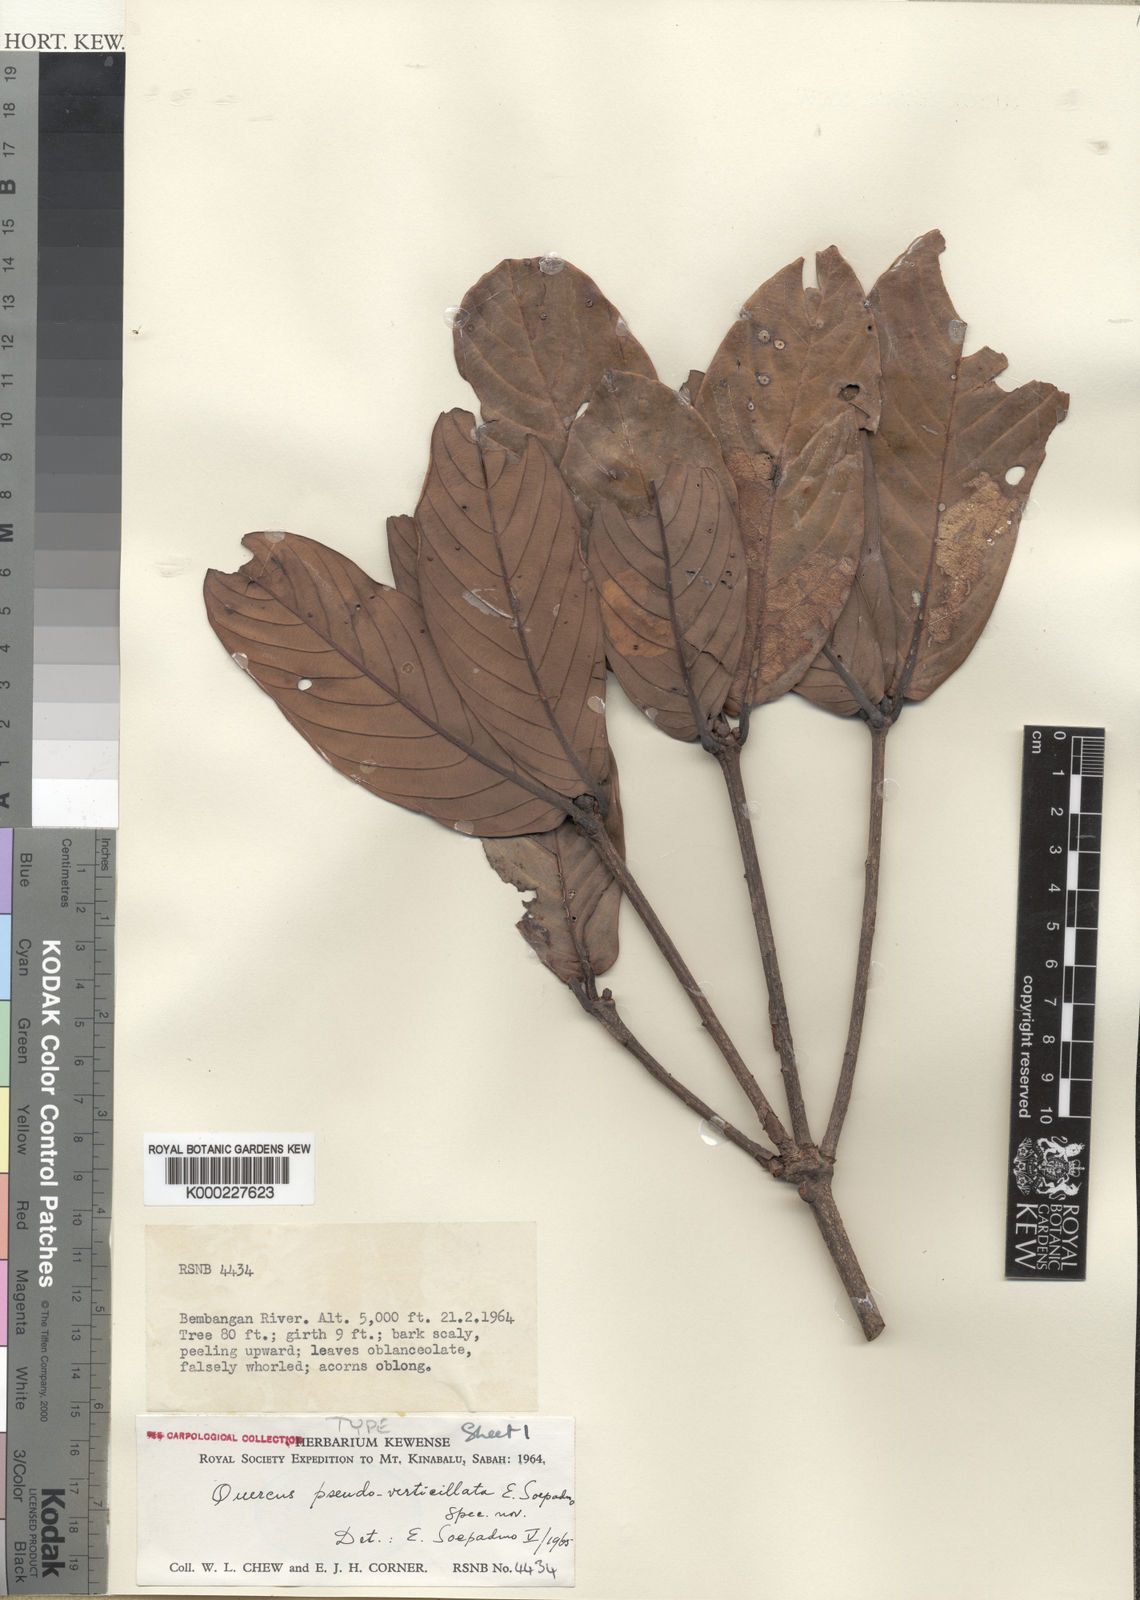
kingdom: Plantae
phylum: Tracheophyta
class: Magnoliopsida
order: Fagales
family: Fagaceae
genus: Quercus
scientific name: Quercus pseudoverticillata
